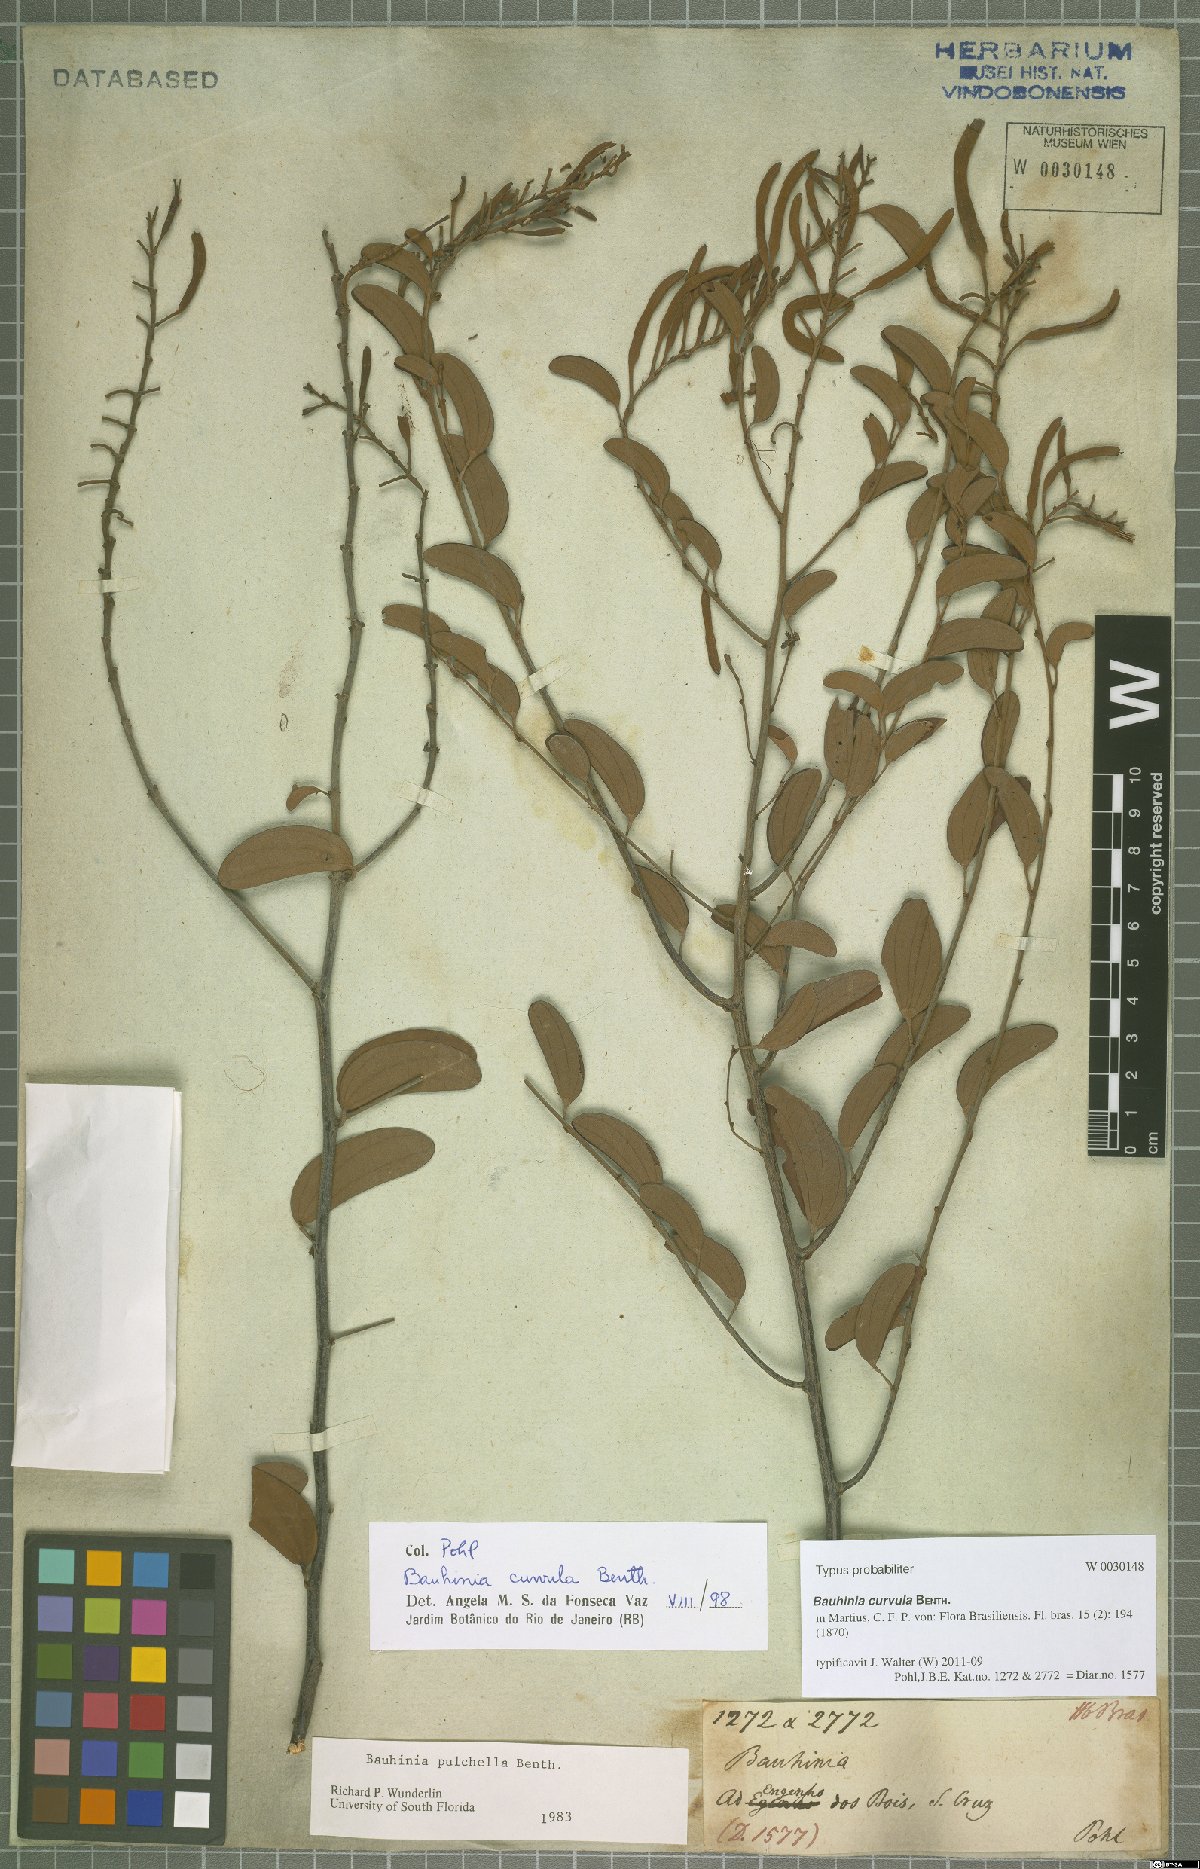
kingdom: Plantae
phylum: Tracheophyta
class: Magnoliopsida
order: Fabales
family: Fabaceae
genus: Bauhinia
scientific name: Bauhinia curvula
